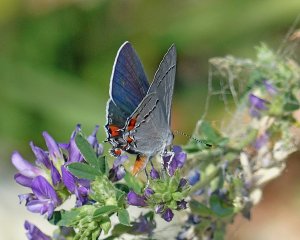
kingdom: Animalia
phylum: Arthropoda
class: Insecta
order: Lepidoptera
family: Lycaenidae
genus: Strymon
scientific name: Strymon melinus
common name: Gray Hairstreak
